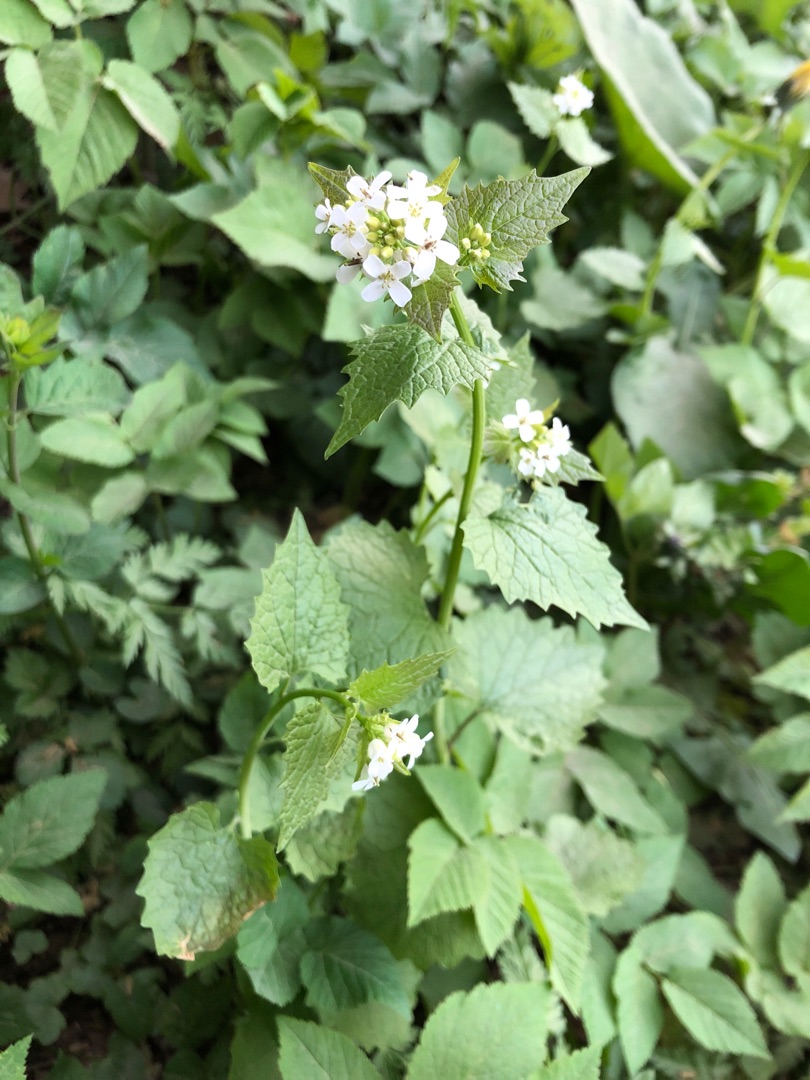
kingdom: Plantae
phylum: Tracheophyta
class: Magnoliopsida
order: Brassicales
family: Brassicaceae
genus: Alliaria
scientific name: Alliaria petiolata
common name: Løgkarse
